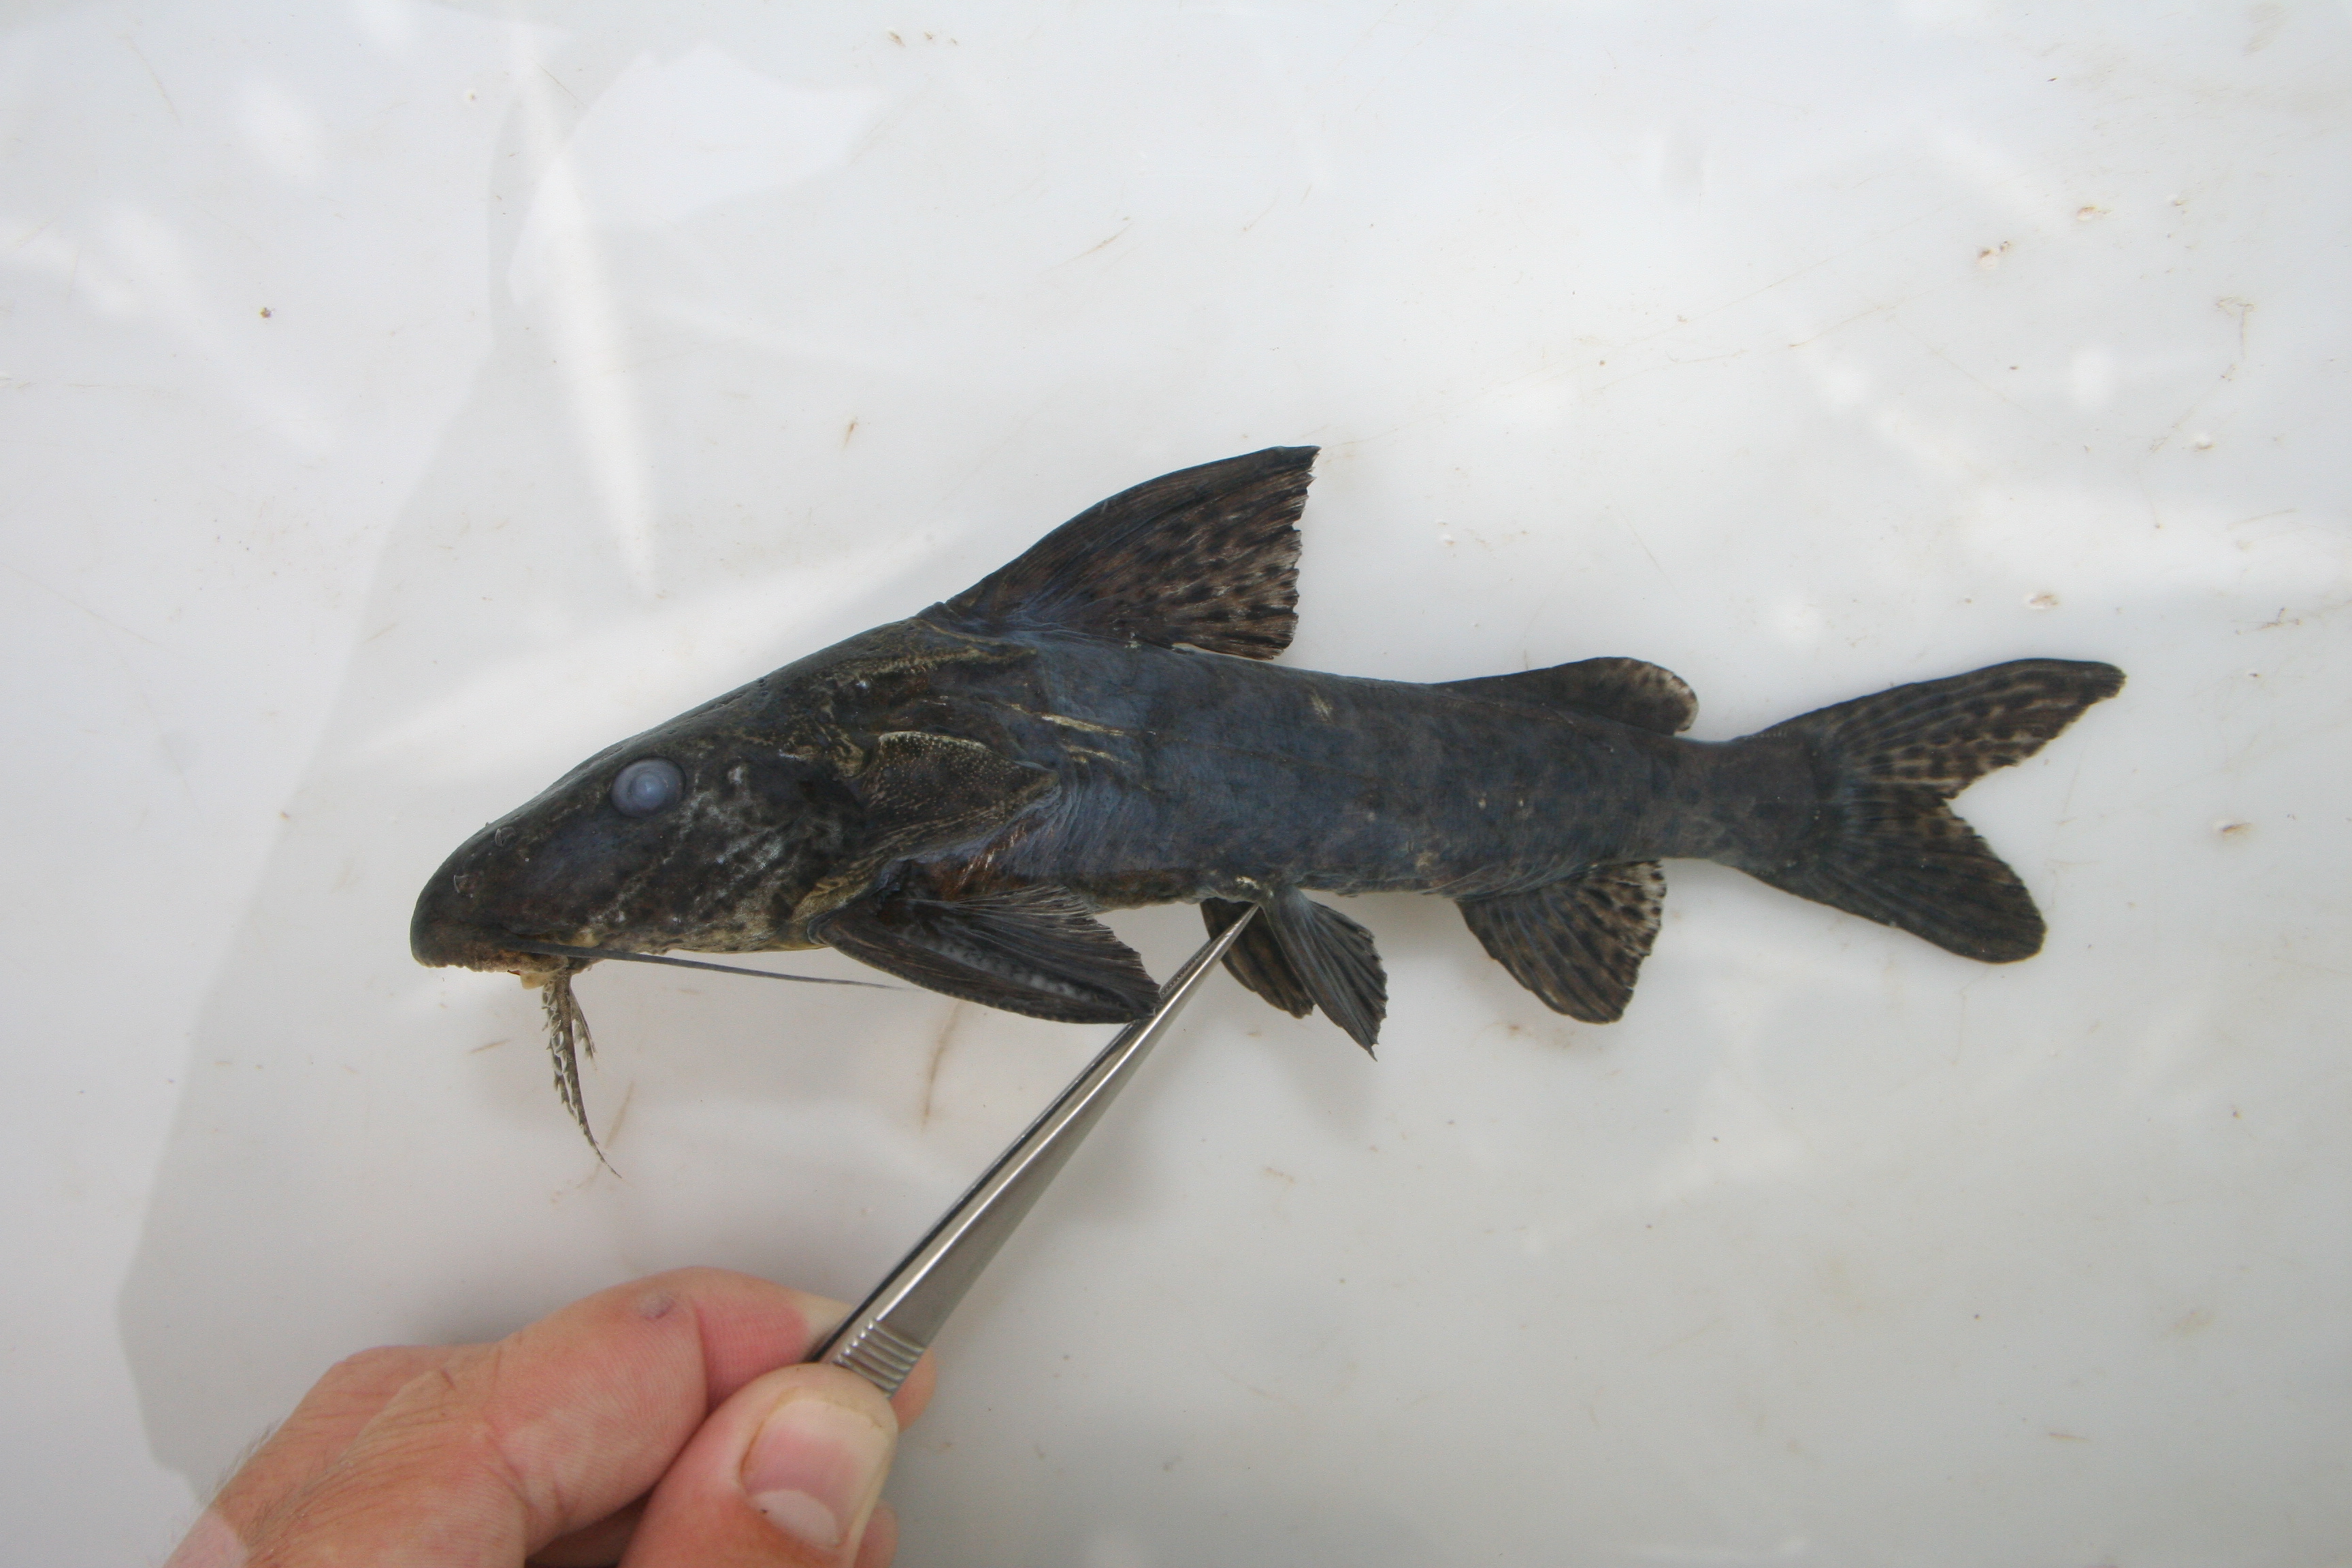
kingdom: Animalia
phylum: Chordata
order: Siluriformes
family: Mochokidae
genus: Synodontis
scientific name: Synodontis
